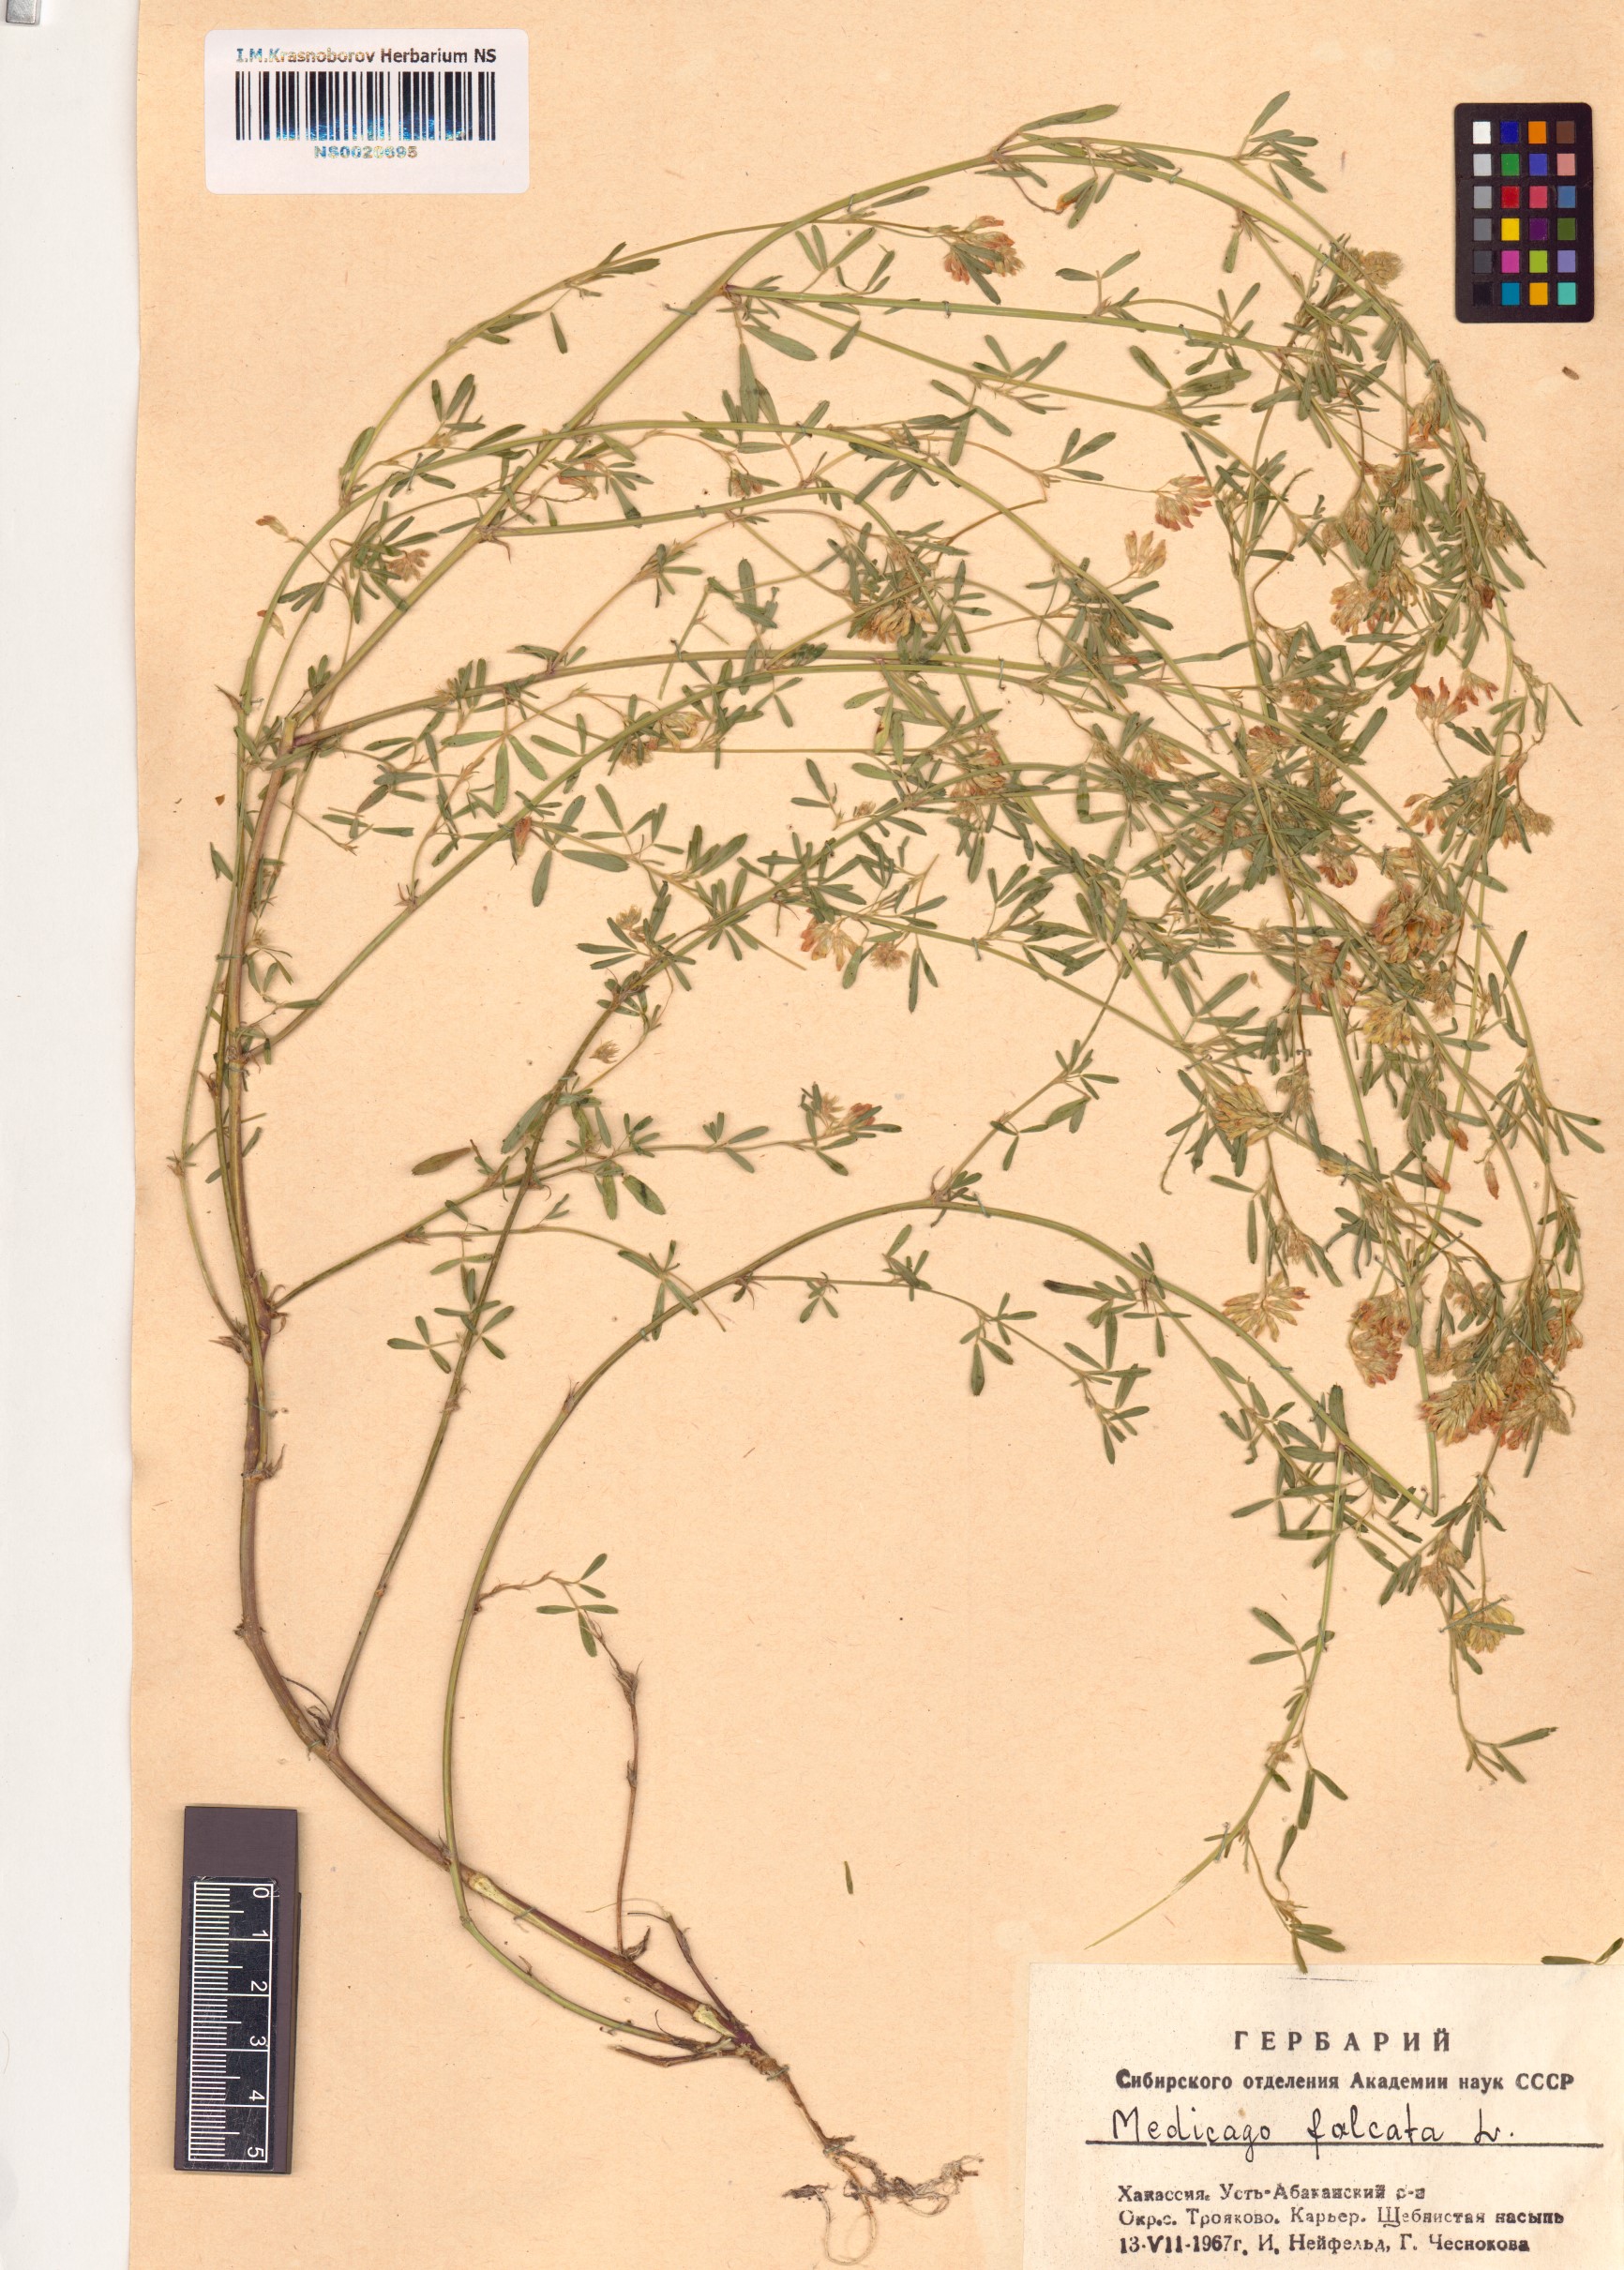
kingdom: Plantae
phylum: Tracheophyta
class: Magnoliopsida
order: Fabales
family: Fabaceae
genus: Medicago
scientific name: Medicago falcata
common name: Sickle medick
